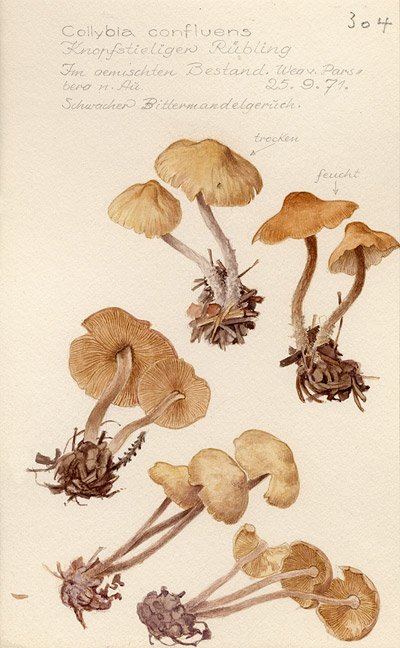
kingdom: Fungi
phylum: Basidiomycota
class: Agaricomycetes
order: Agaricales
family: Omphalotaceae
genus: Collybiopsis
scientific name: Collybiopsis confluens
